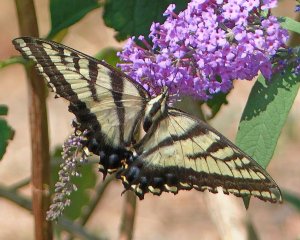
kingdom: Animalia
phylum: Arthropoda
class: Insecta
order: Lepidoptera
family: Papilionidae
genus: Pterourus
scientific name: Pterourus rutulus
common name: Western Tiger Swallowtail
